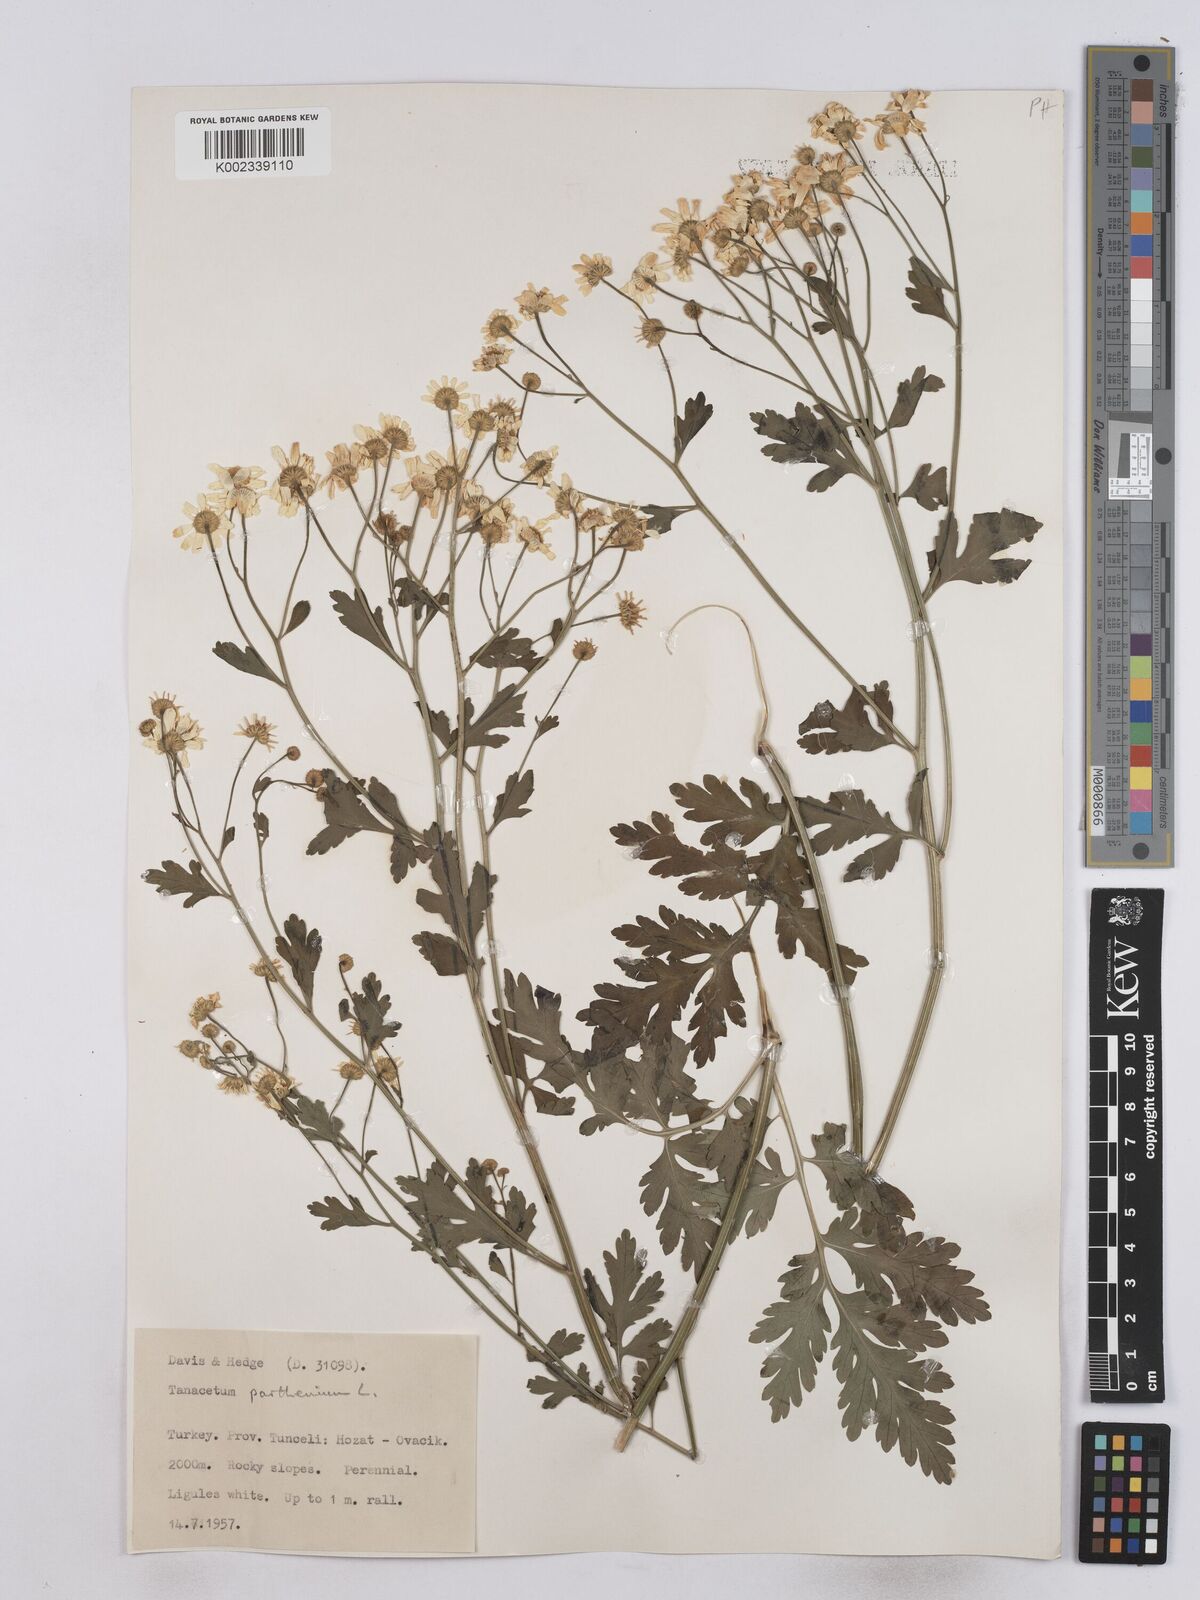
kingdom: Plantae
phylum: Tracheophyta
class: Magnoliopsida
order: Asterales
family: Asteraceae
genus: Tanacetum
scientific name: Tanacetum parthenium
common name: Feverfew
